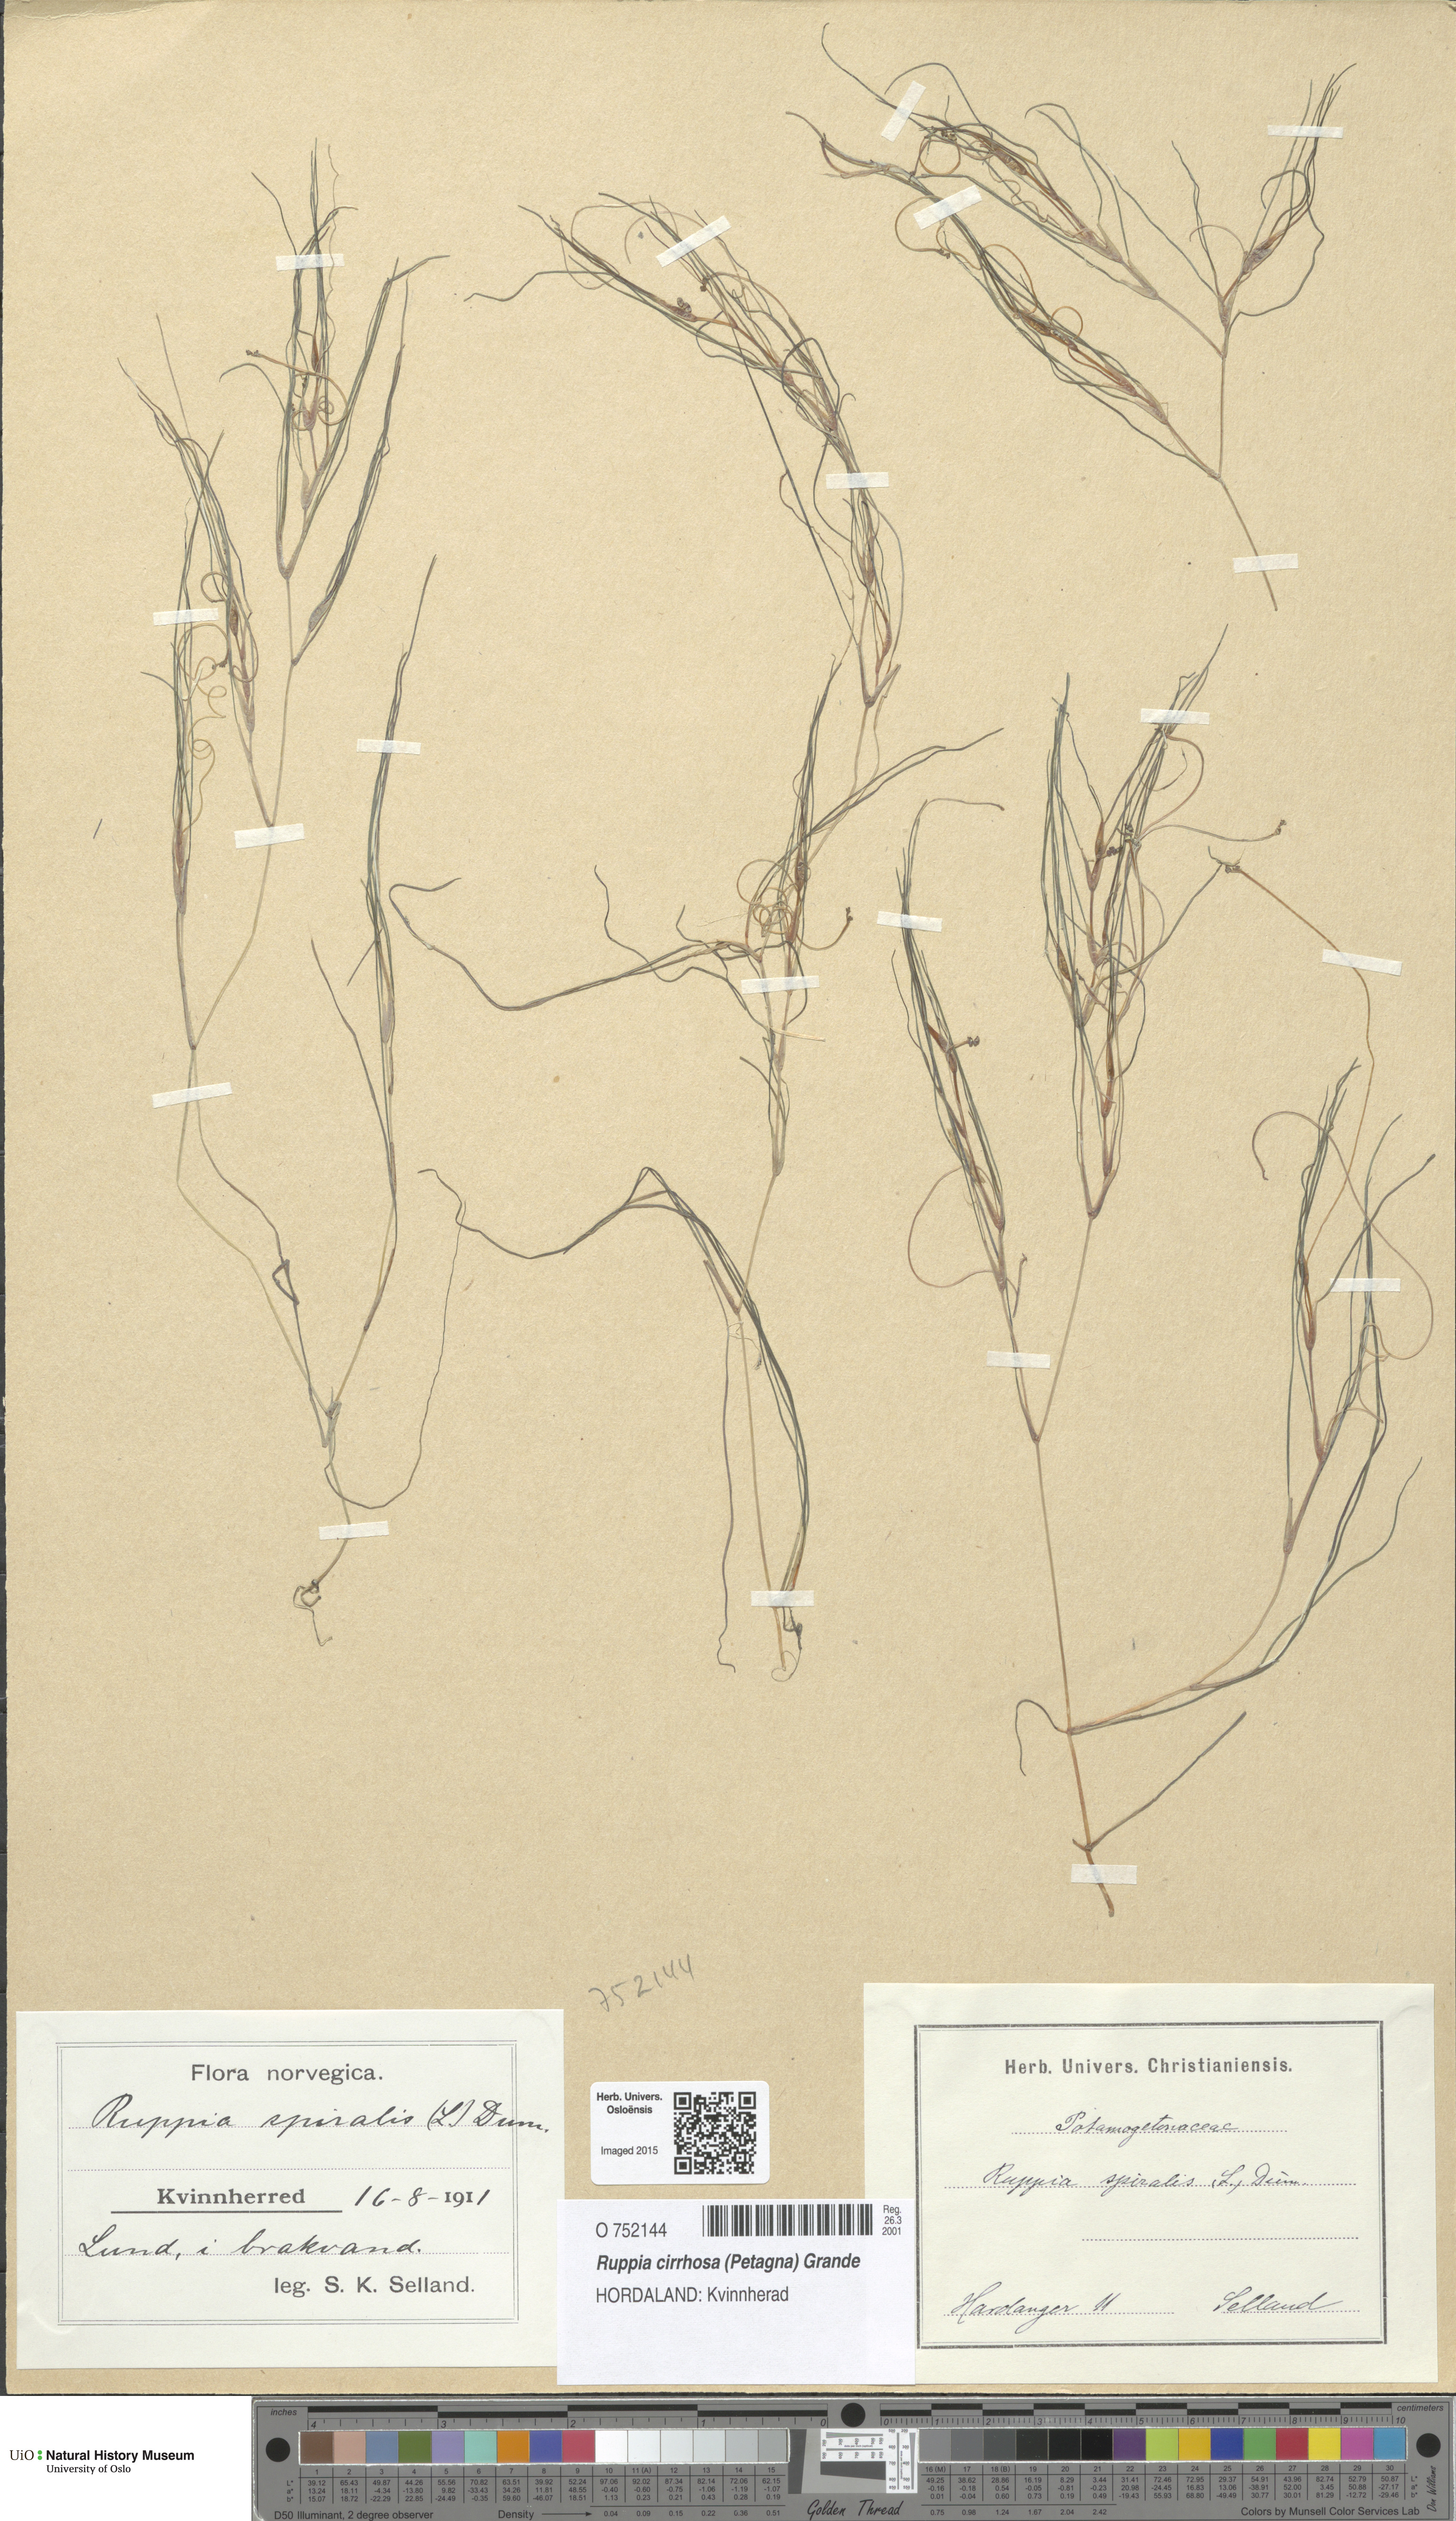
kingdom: Plantae
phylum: Tracheophyta
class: Liliopsida
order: Alismatales
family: Ruppiaceae
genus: Ruppia
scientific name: Ruppia cirrhosa
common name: Spiral tasselweed
